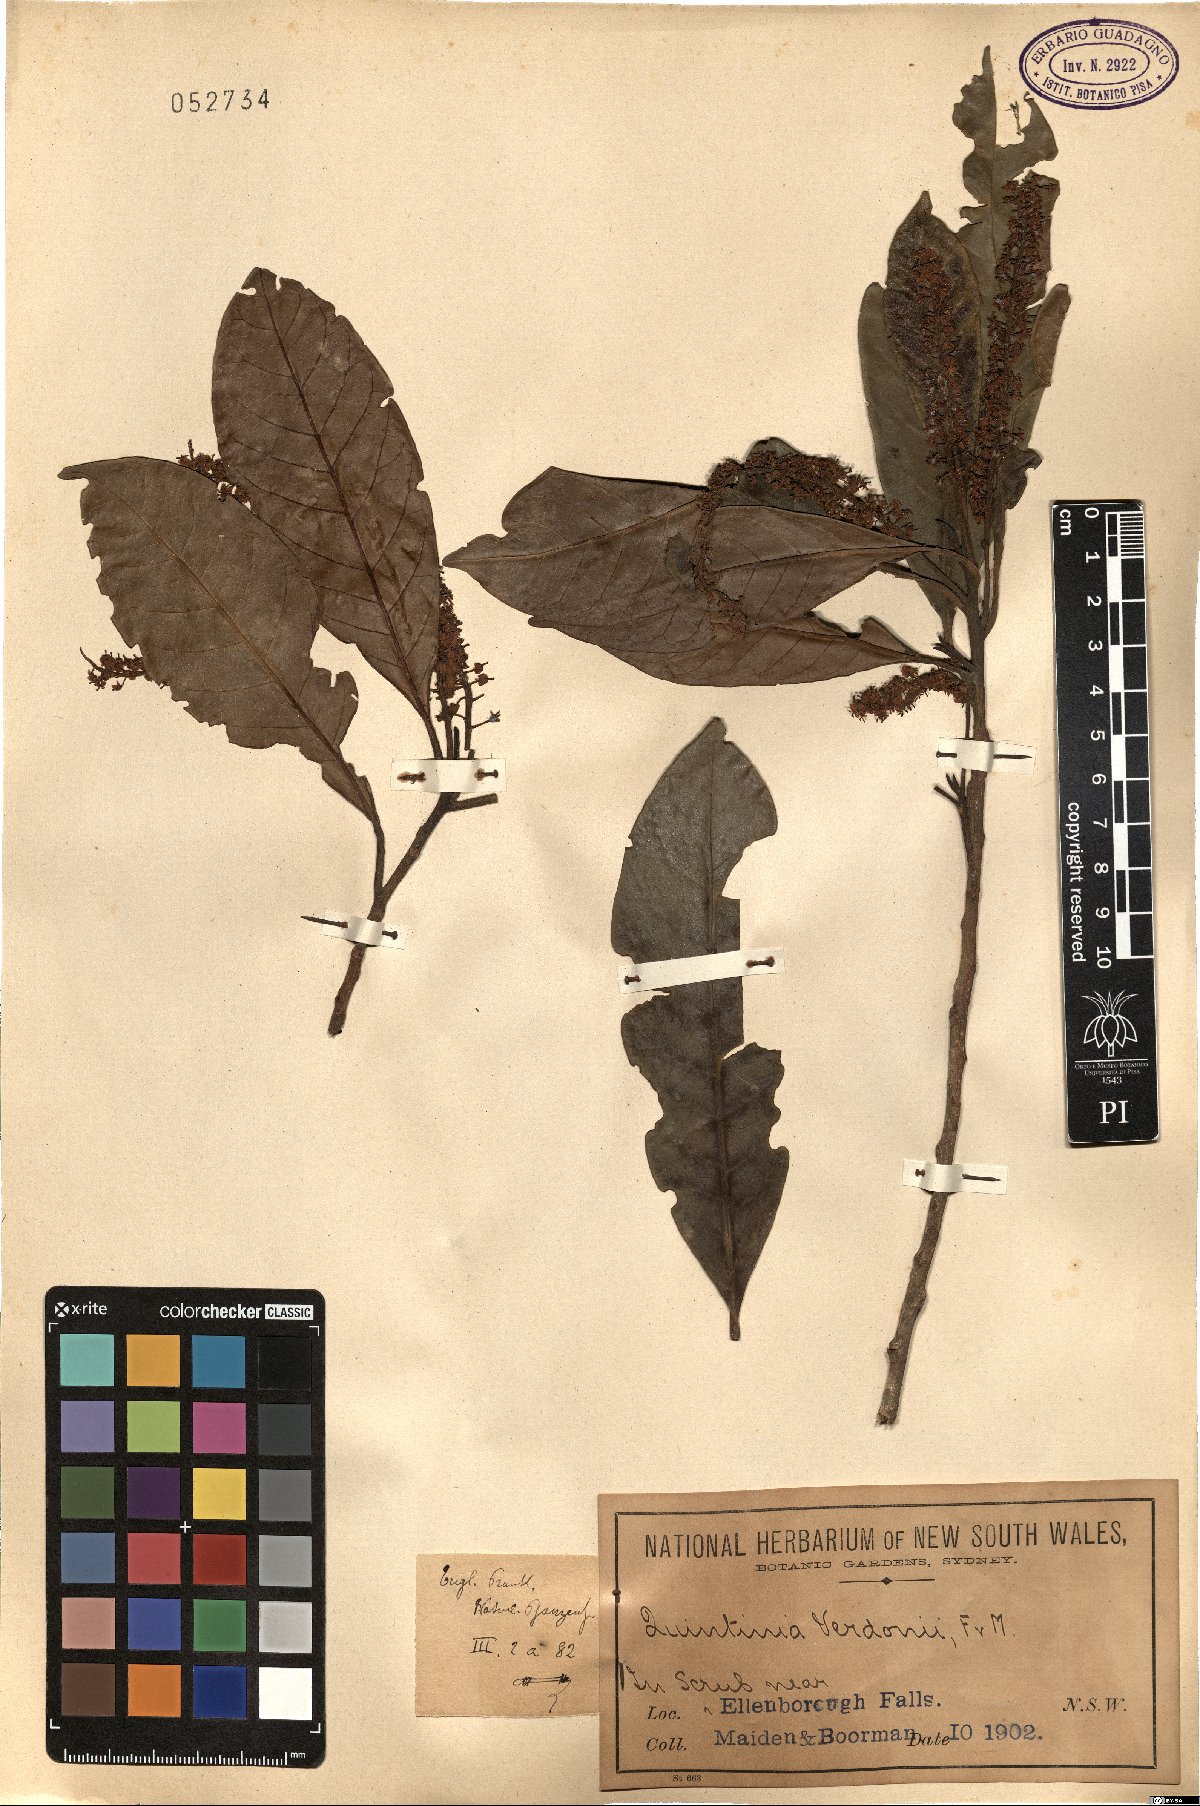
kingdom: Plantae
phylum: Tracheophyta
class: Magnoliopsida
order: Paracryphiales
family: Paracryphiaceae
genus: Quintinia
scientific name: Quintinia verdonii
